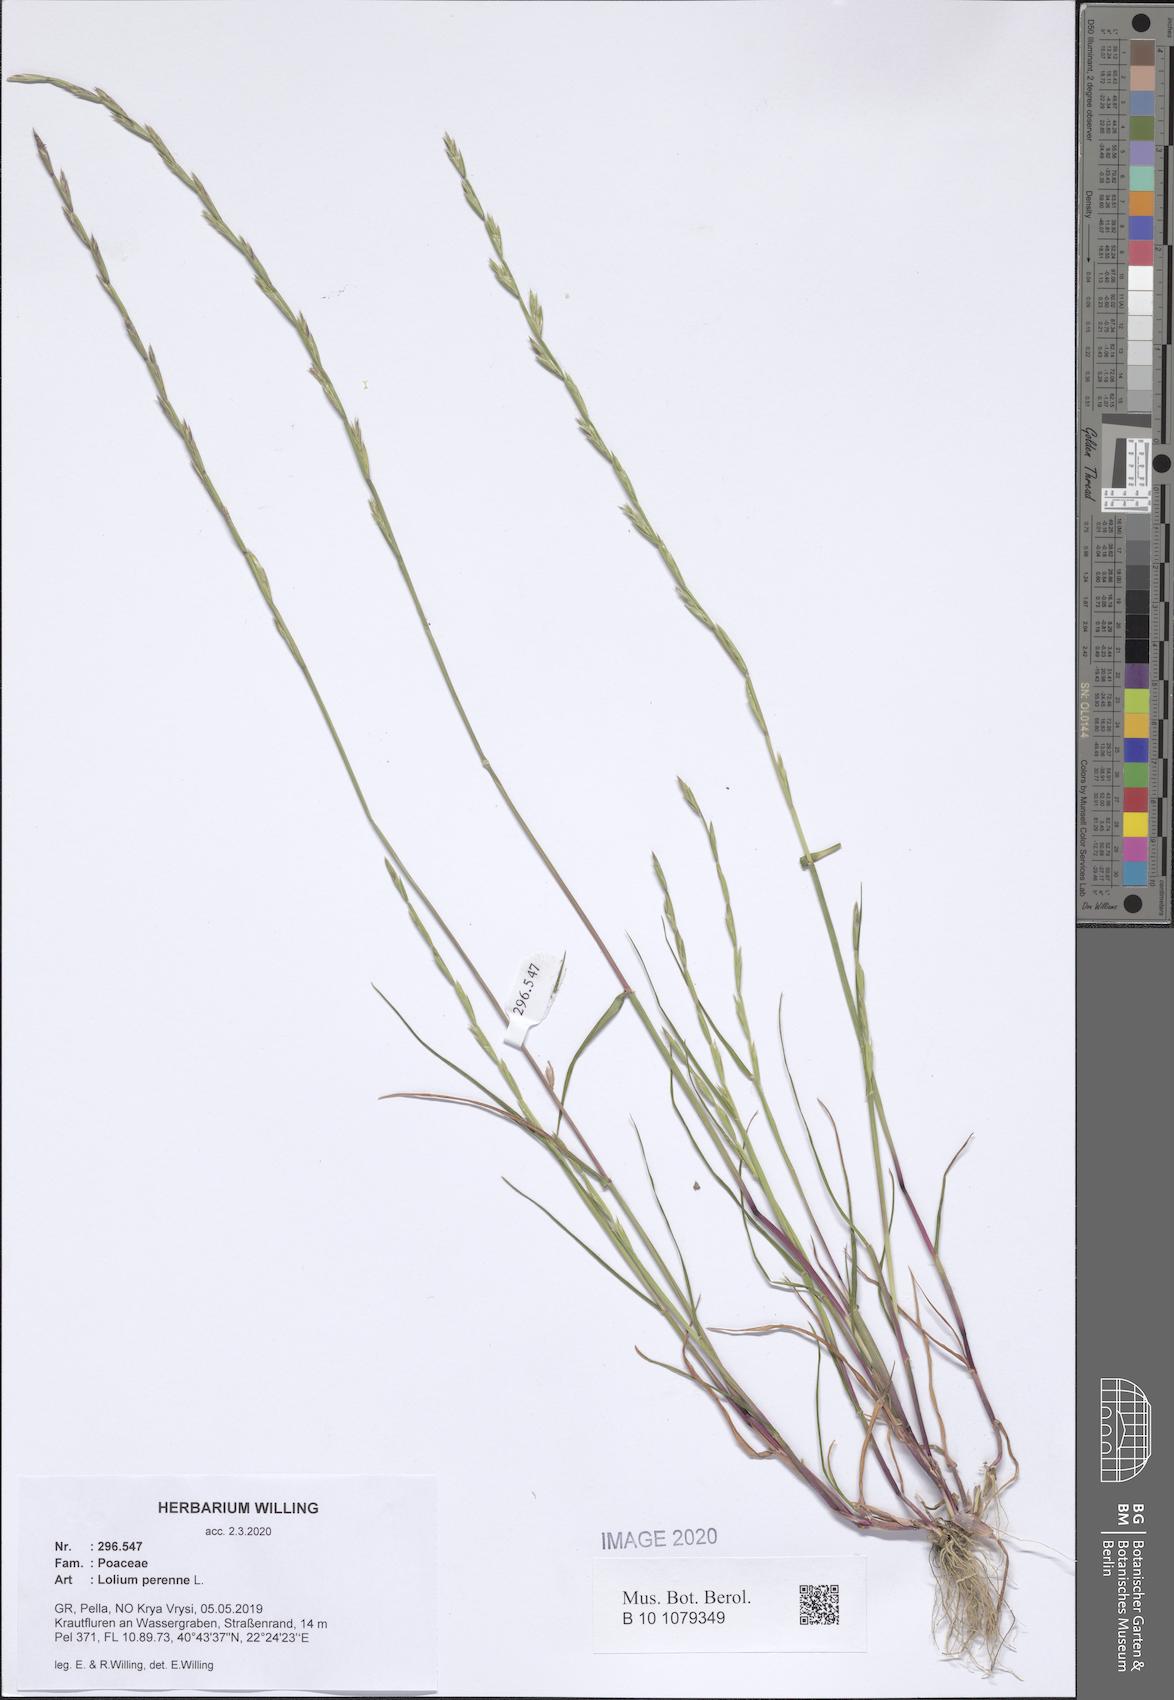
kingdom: Plantae
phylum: Tracheophyta
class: Liliopsida
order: Poales
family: Poaceae
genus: Lolium
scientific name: Lolium perenne
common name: Perennial ryegrass
